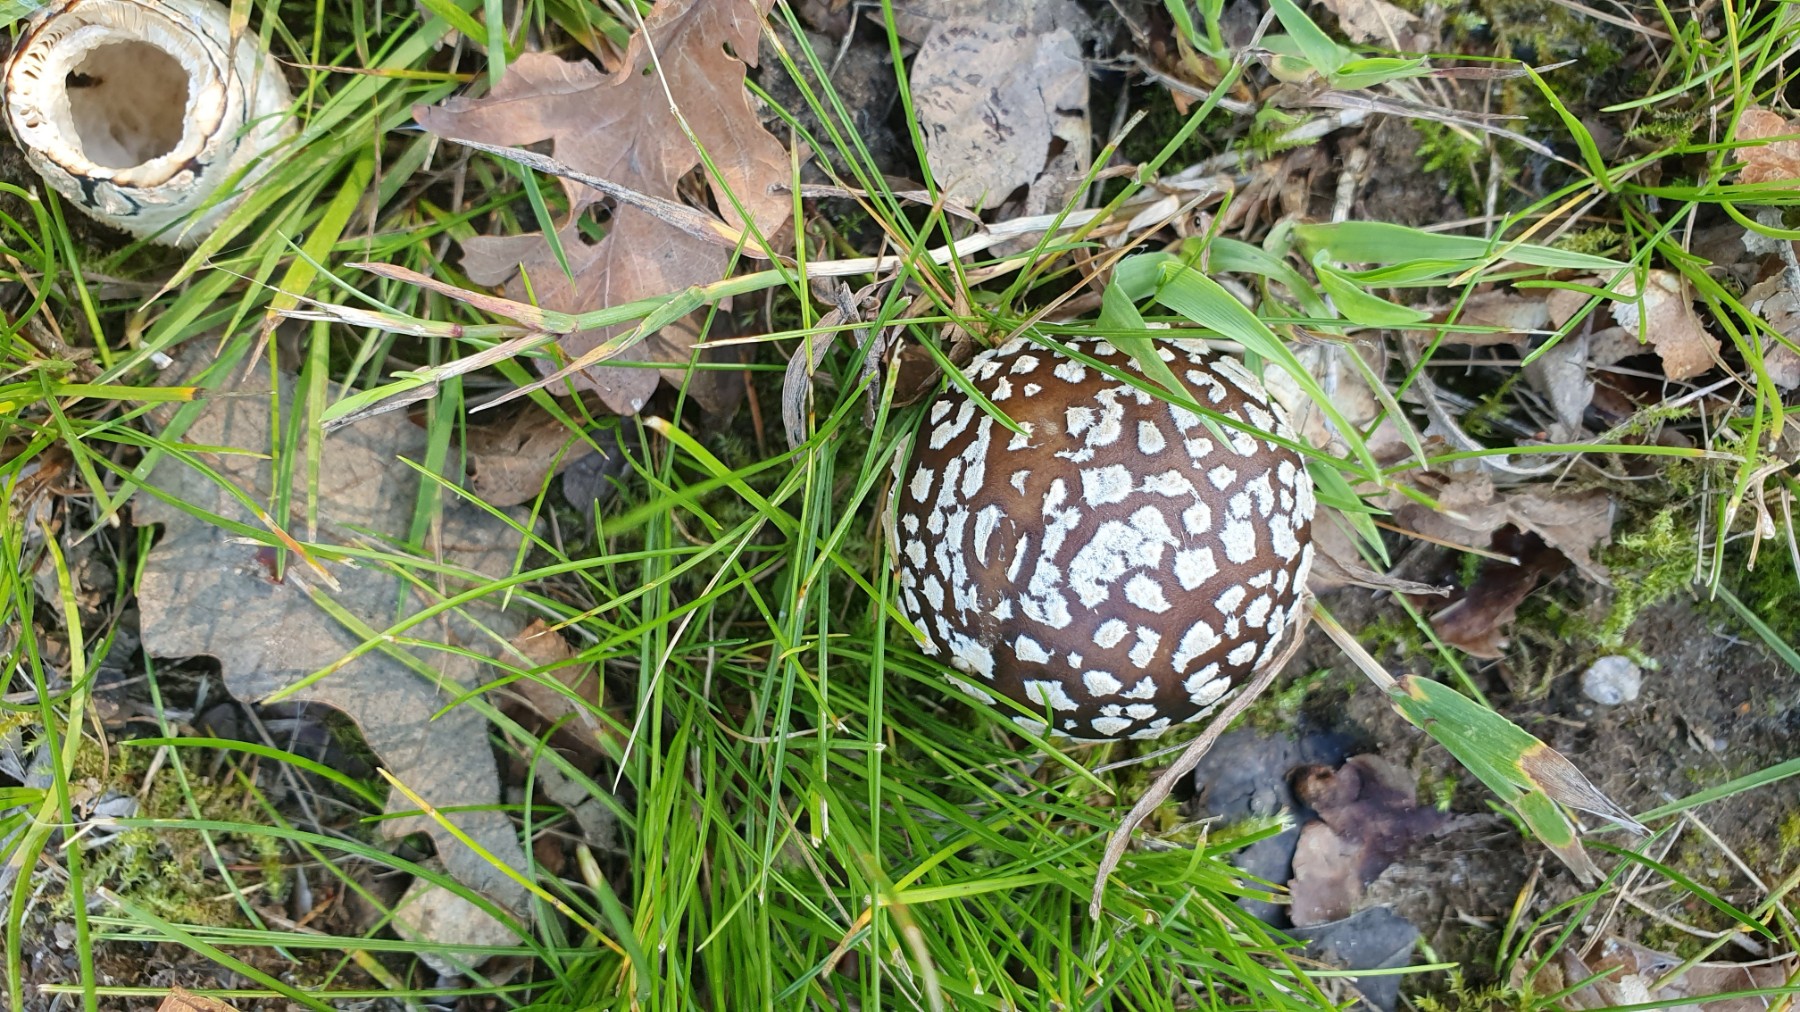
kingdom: Fungi
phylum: Basidiomycota
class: Agaricomycetes
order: Agaricales
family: Amanitaceae
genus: Amanita
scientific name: Amanita pantherina
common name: panter-fluesvamp
